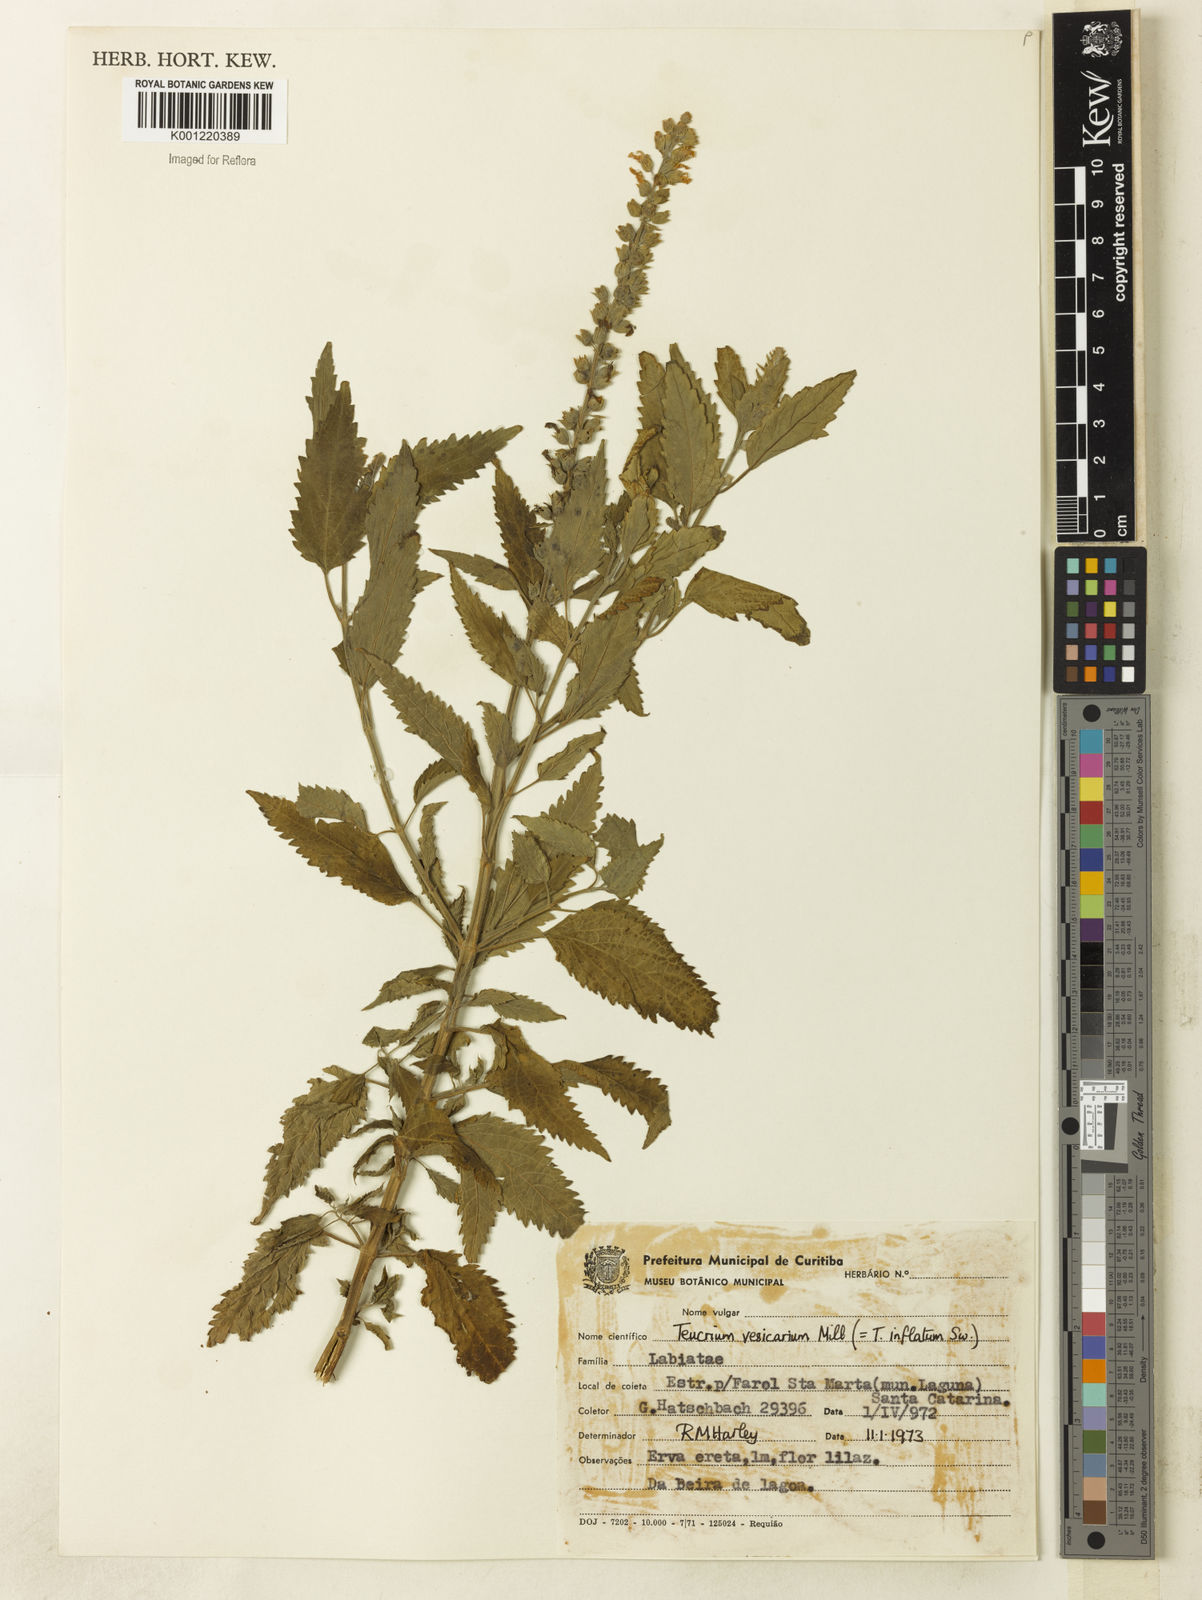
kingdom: Plantae
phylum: Tracheophyta
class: Magnoliopsida
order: Lamiales
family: Lamiaceae
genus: Teucrium
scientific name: Teucrium vesicarium
